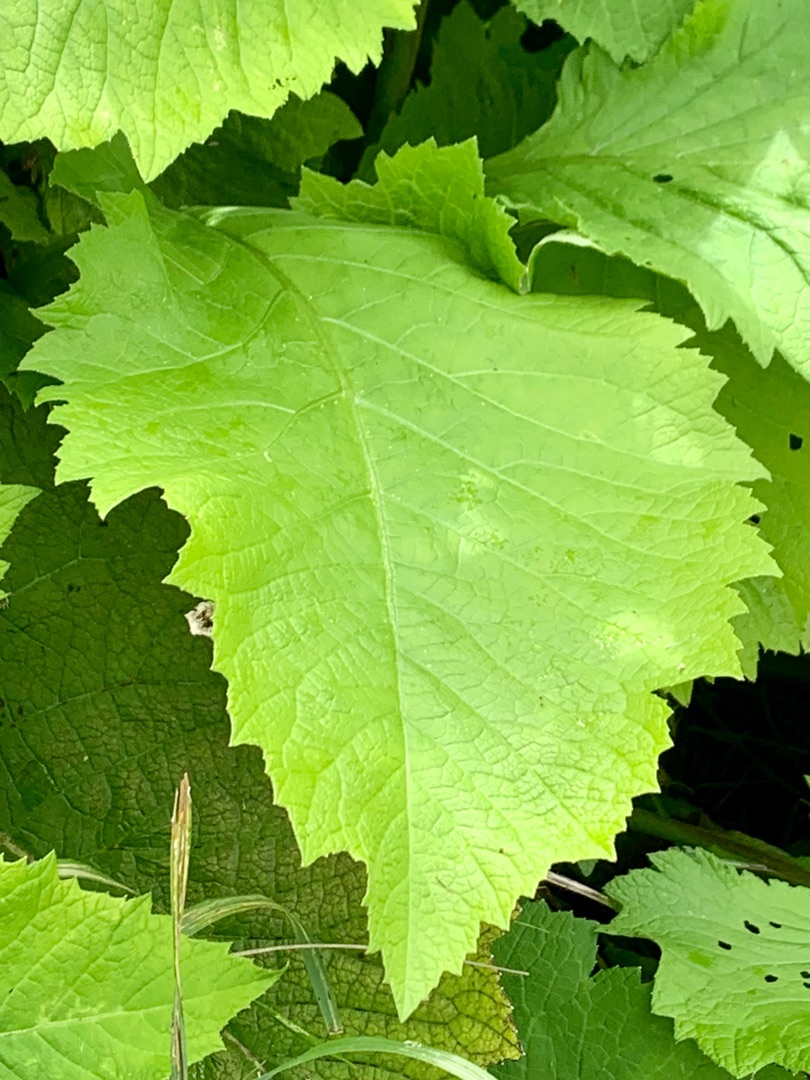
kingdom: Plantae
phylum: Tracheophyta
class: Magnoliopsida
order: Asterales
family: Asteraceae
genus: Telekia
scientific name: Telekia speciosa
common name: Tusindstråle
